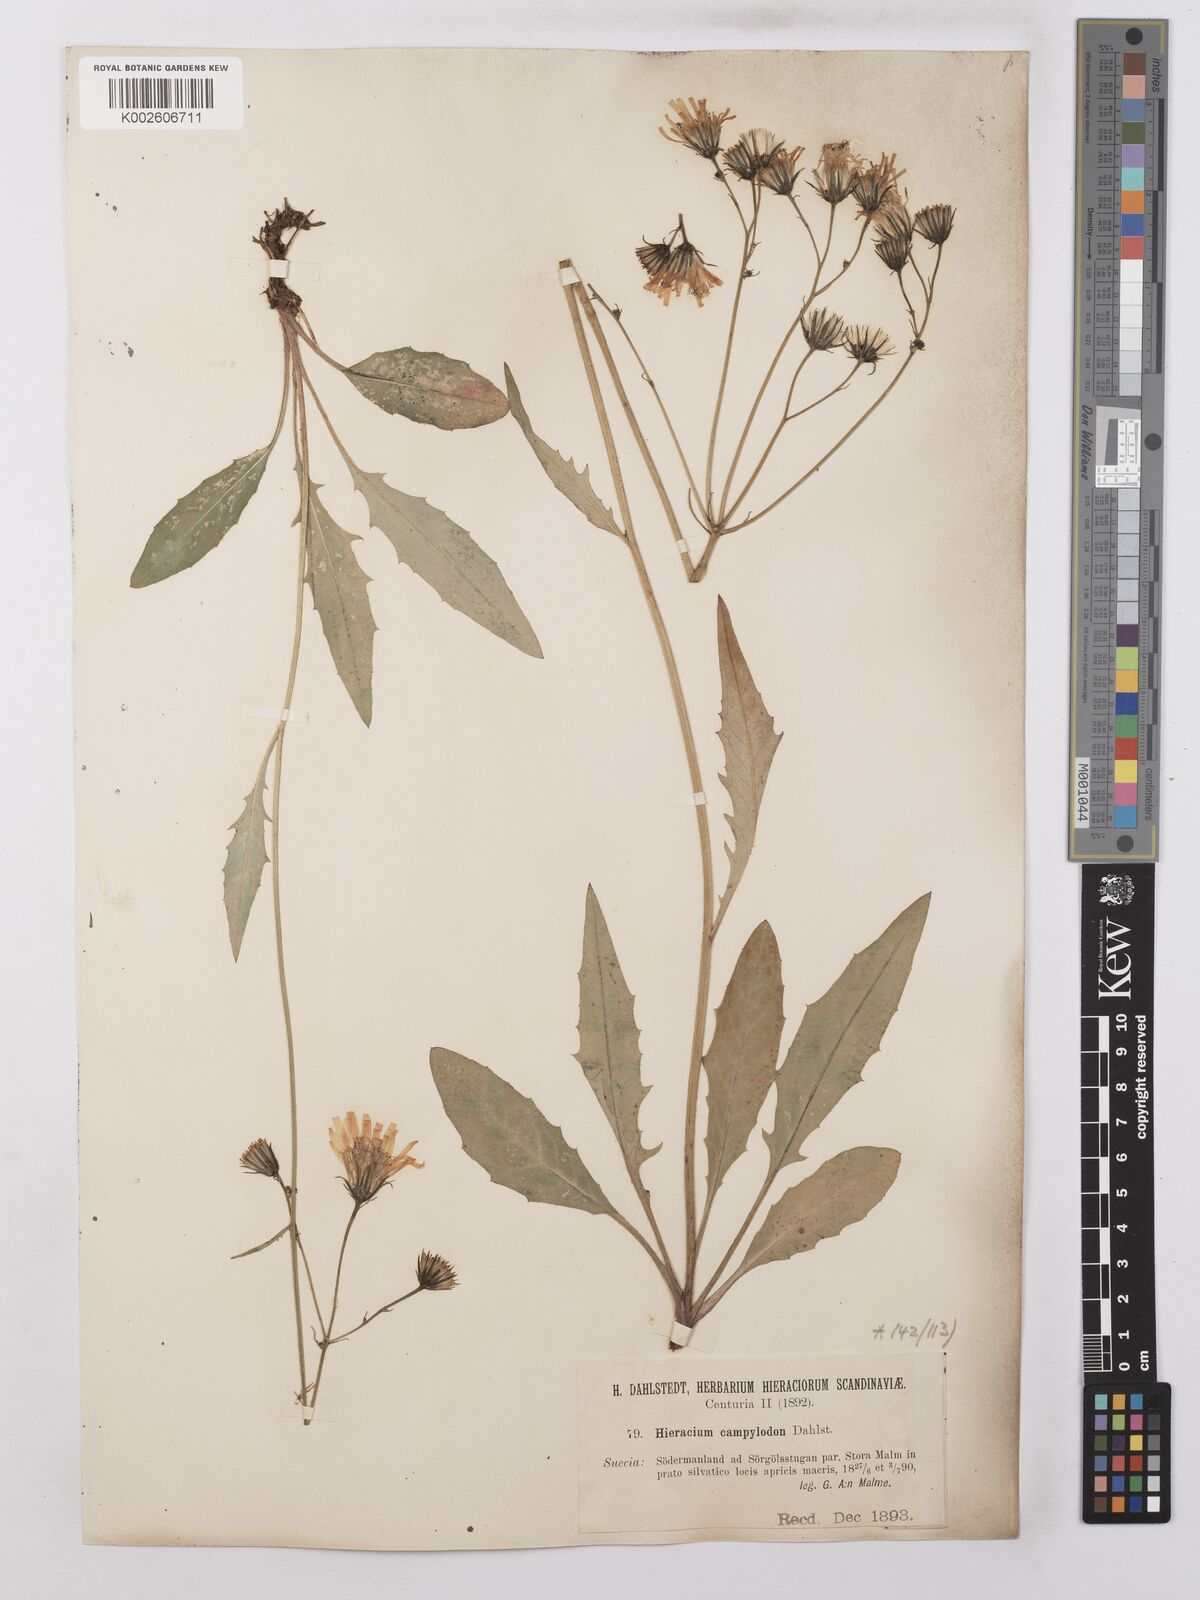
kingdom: Plantae
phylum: Tracheophyta
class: Magnoliopsida
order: Asterales
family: Asteraceae
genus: Hieracium
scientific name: Hieracium lachenalii
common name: Common hawkweed
